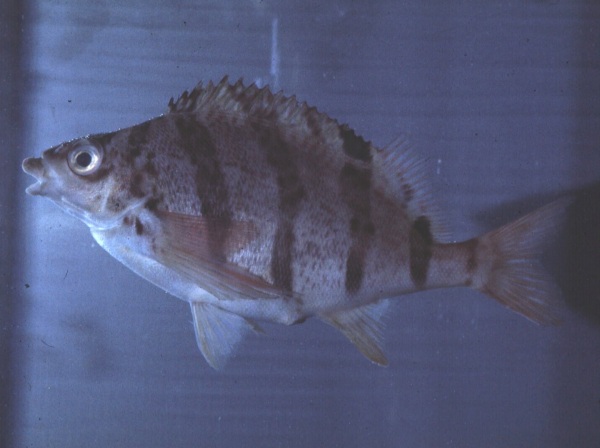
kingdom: Animalia
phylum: Chordata
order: Perciformes
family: Cheilodactylidae
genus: Cheilodactylus
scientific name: Cheilodactylus pixi
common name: Barred fingerfin
